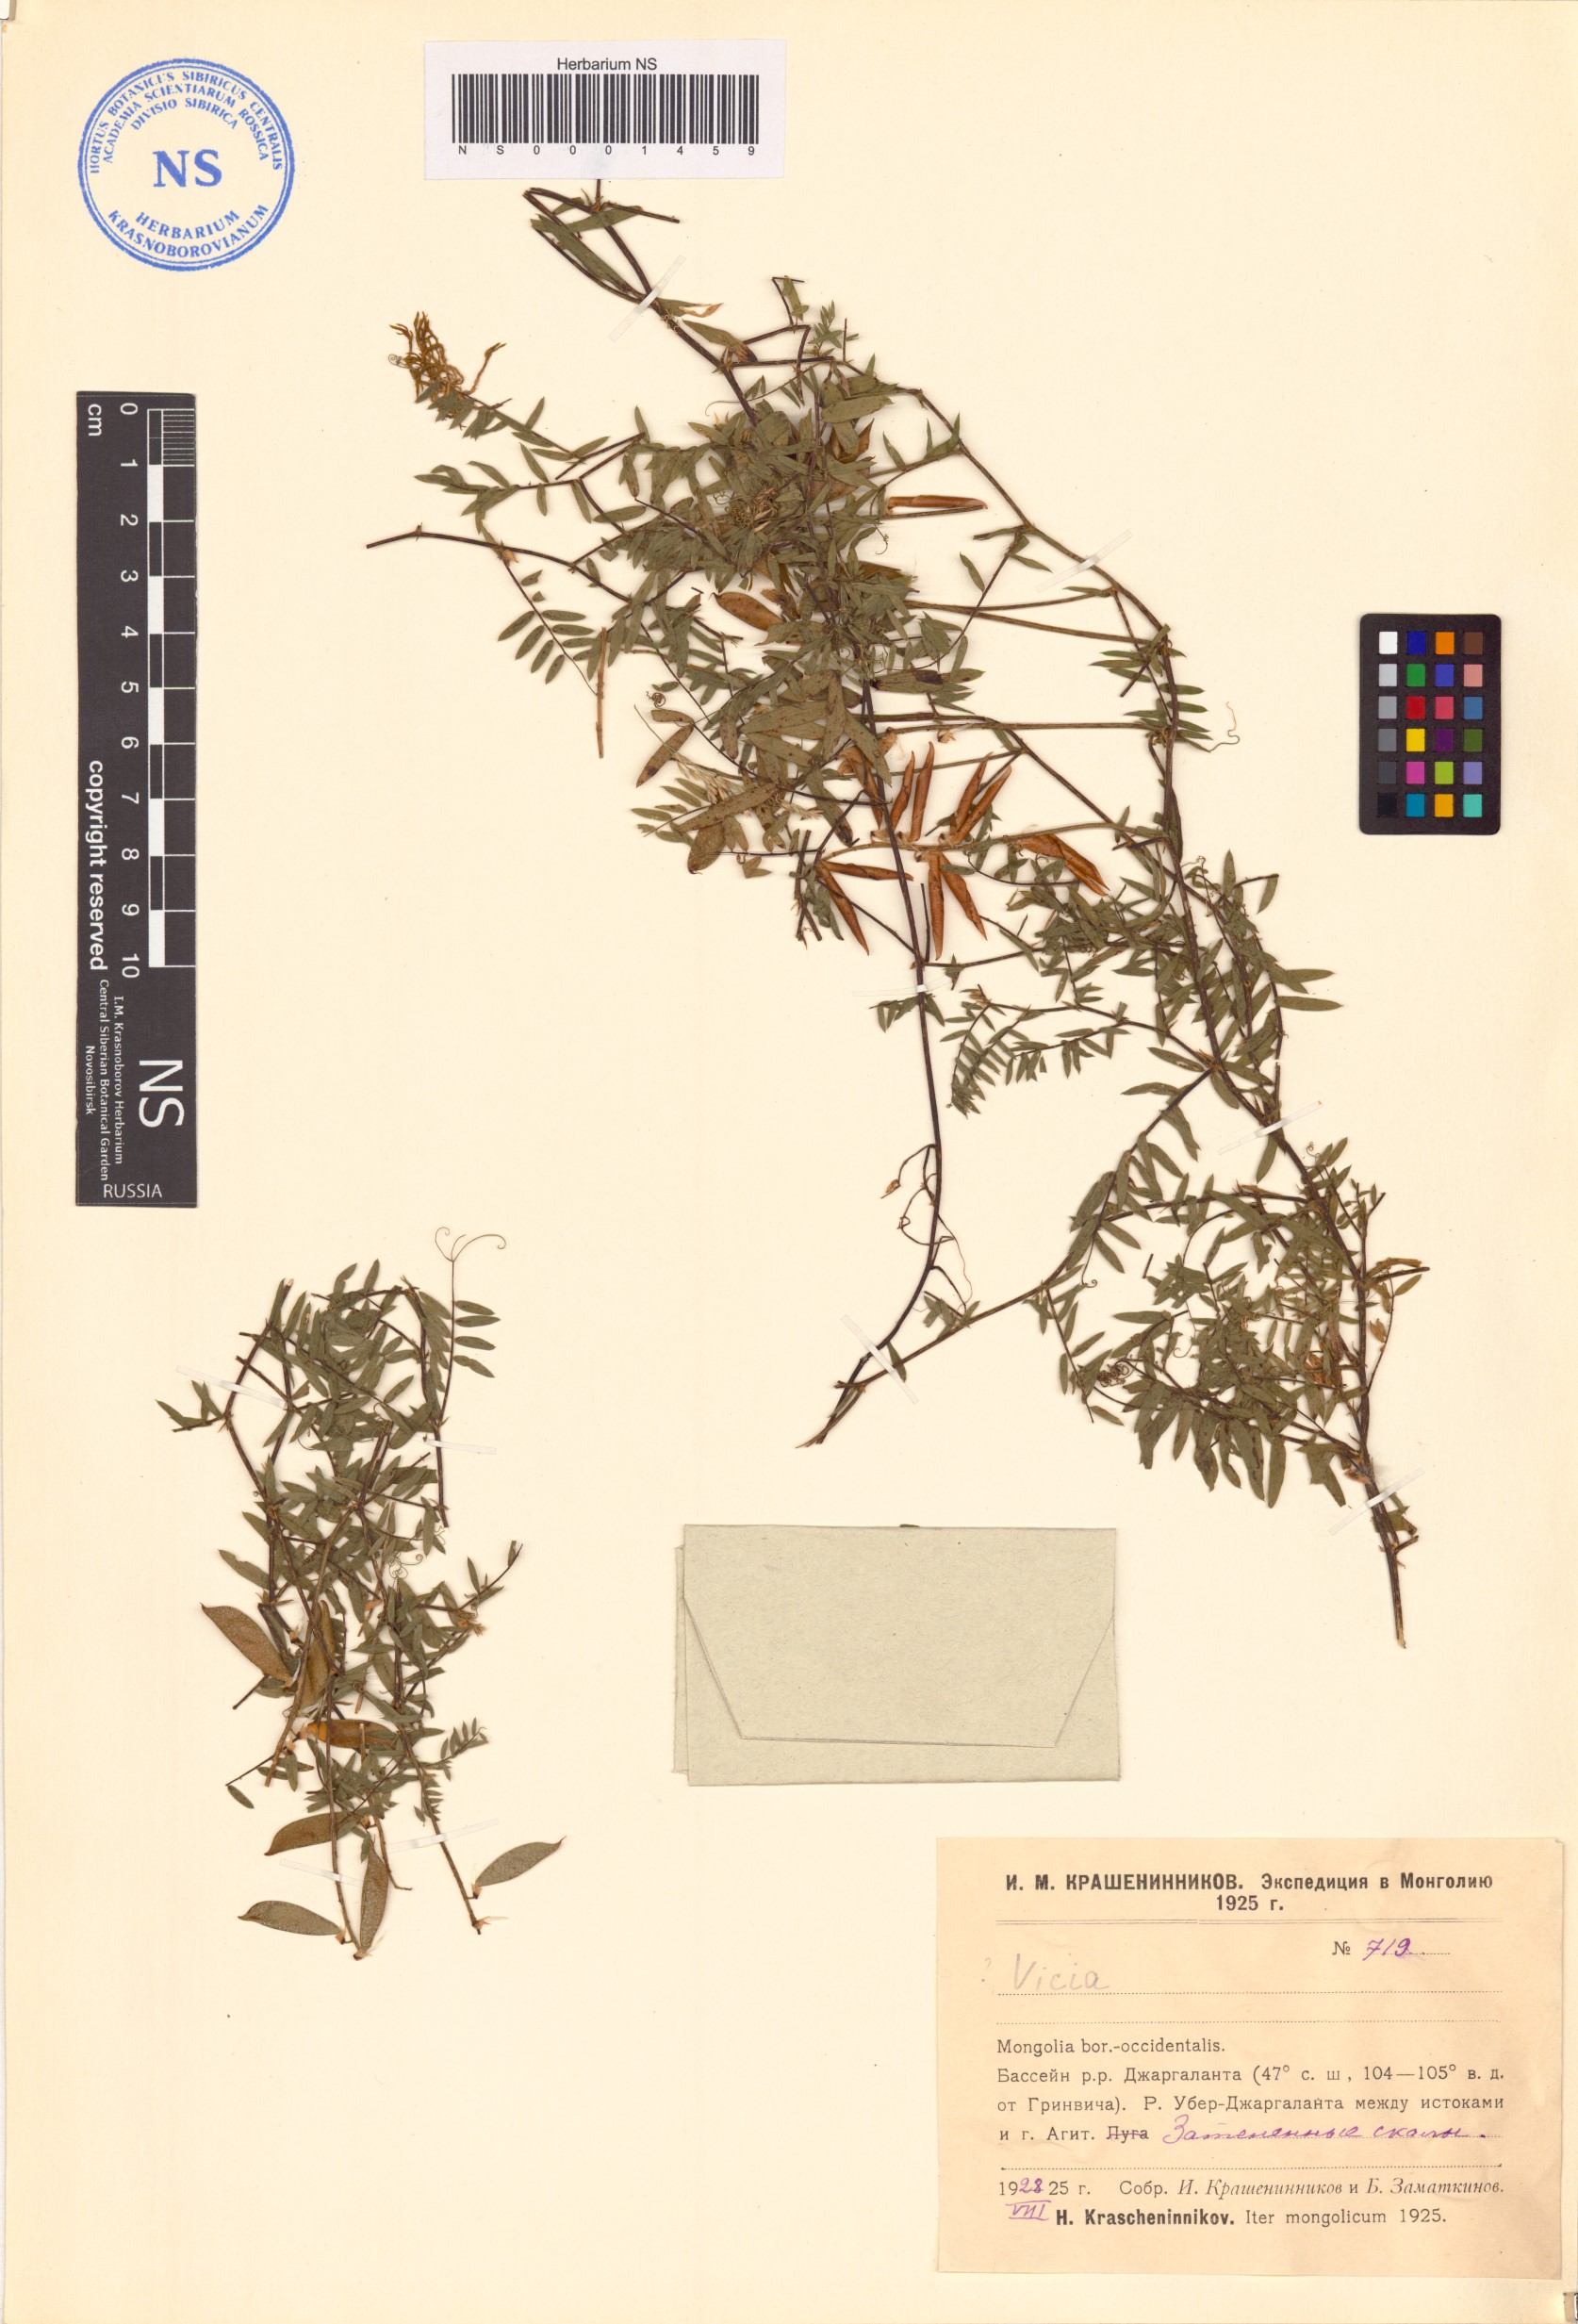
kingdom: Plantae
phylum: Tracheophyta
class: Magnoliopsida
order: Fabales
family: Fabaceae
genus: Vicia
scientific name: Vicia
